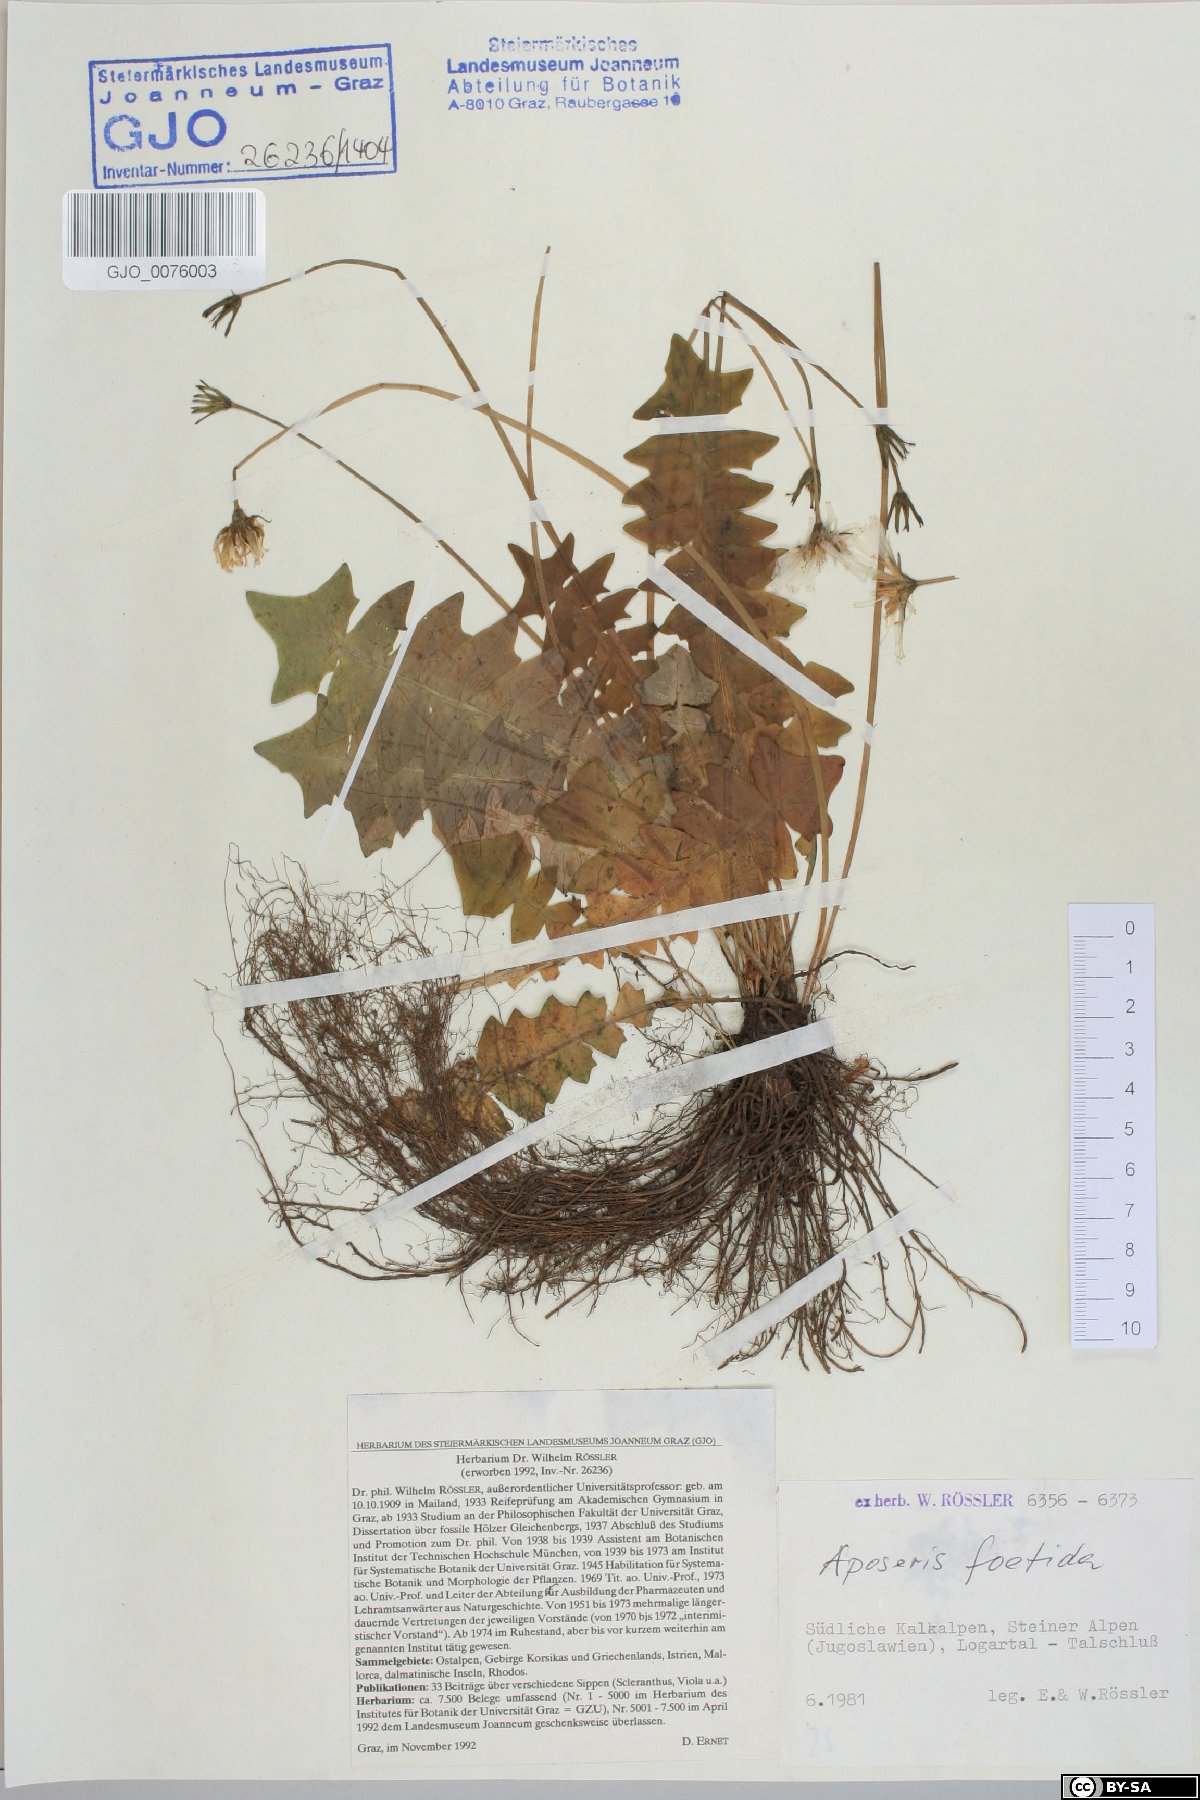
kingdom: Plantae
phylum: Tracheophyta
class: Magnoliopsida
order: Asterales
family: Asteraceae
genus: Aposeris
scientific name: Aposeris foetida
